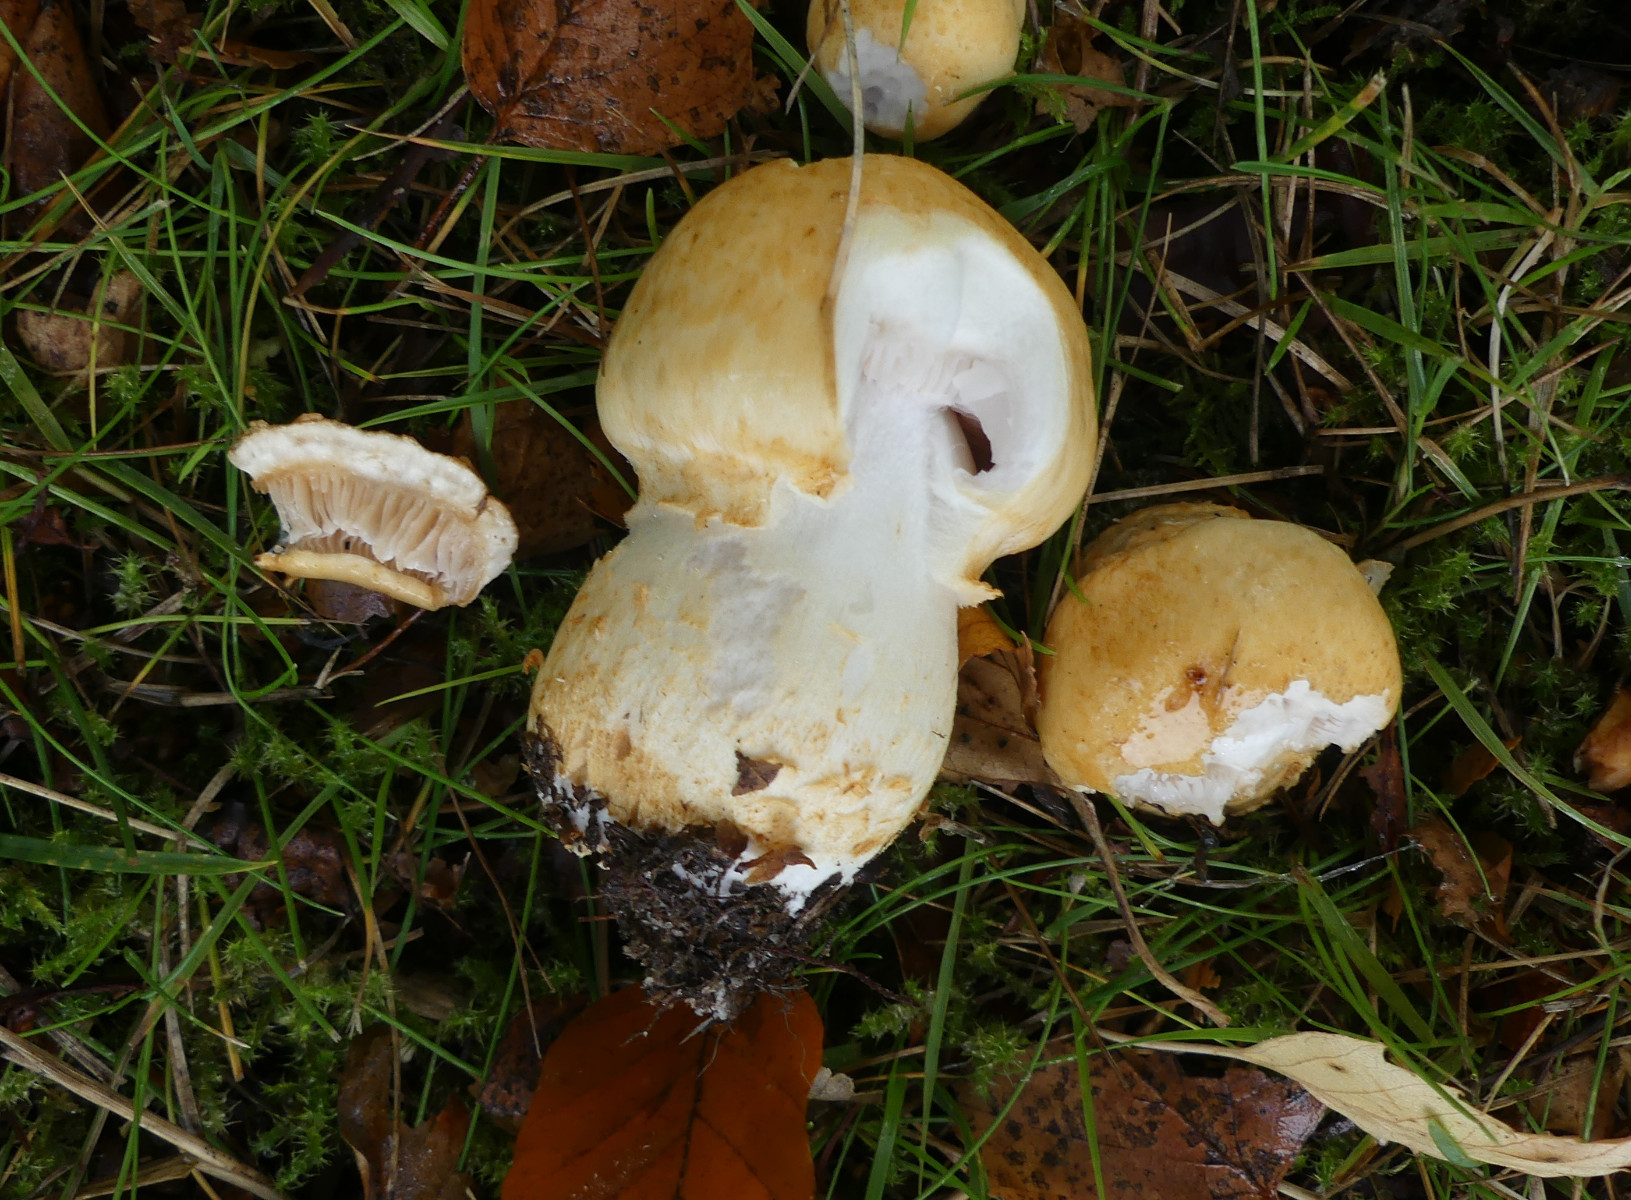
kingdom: Fungi
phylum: Basidiomycota
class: Agaricomycetes
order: Agaricales
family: Cortinariaceae
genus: Phlegmacium
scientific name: Phlegmacium triumphans
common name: gulbæltet slørhat
